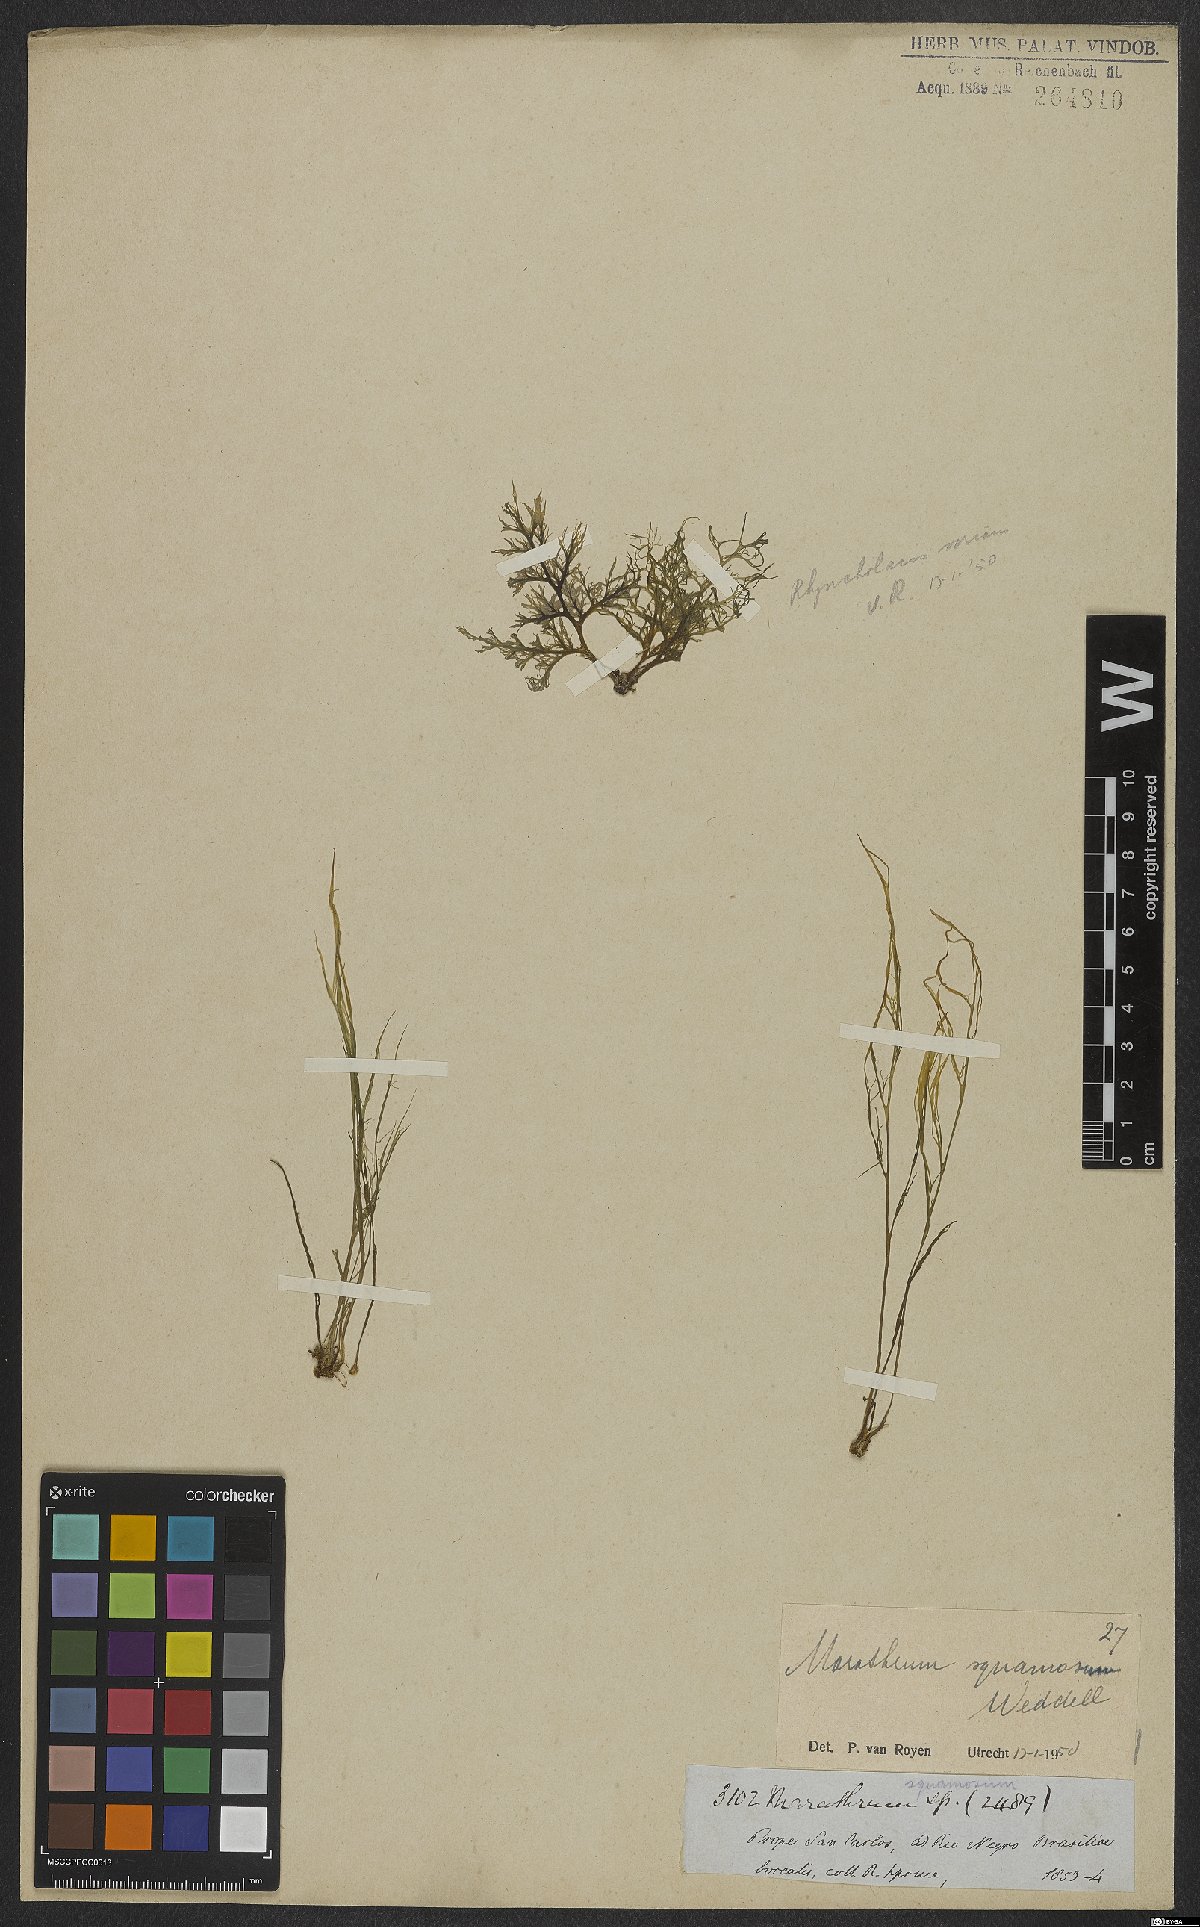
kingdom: Plantae
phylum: Tracheophyta
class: Magnoliopsida
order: Malpighiales
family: Podostemaceae
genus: Rhyncholacis
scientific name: Rhyncholacis squamosa
